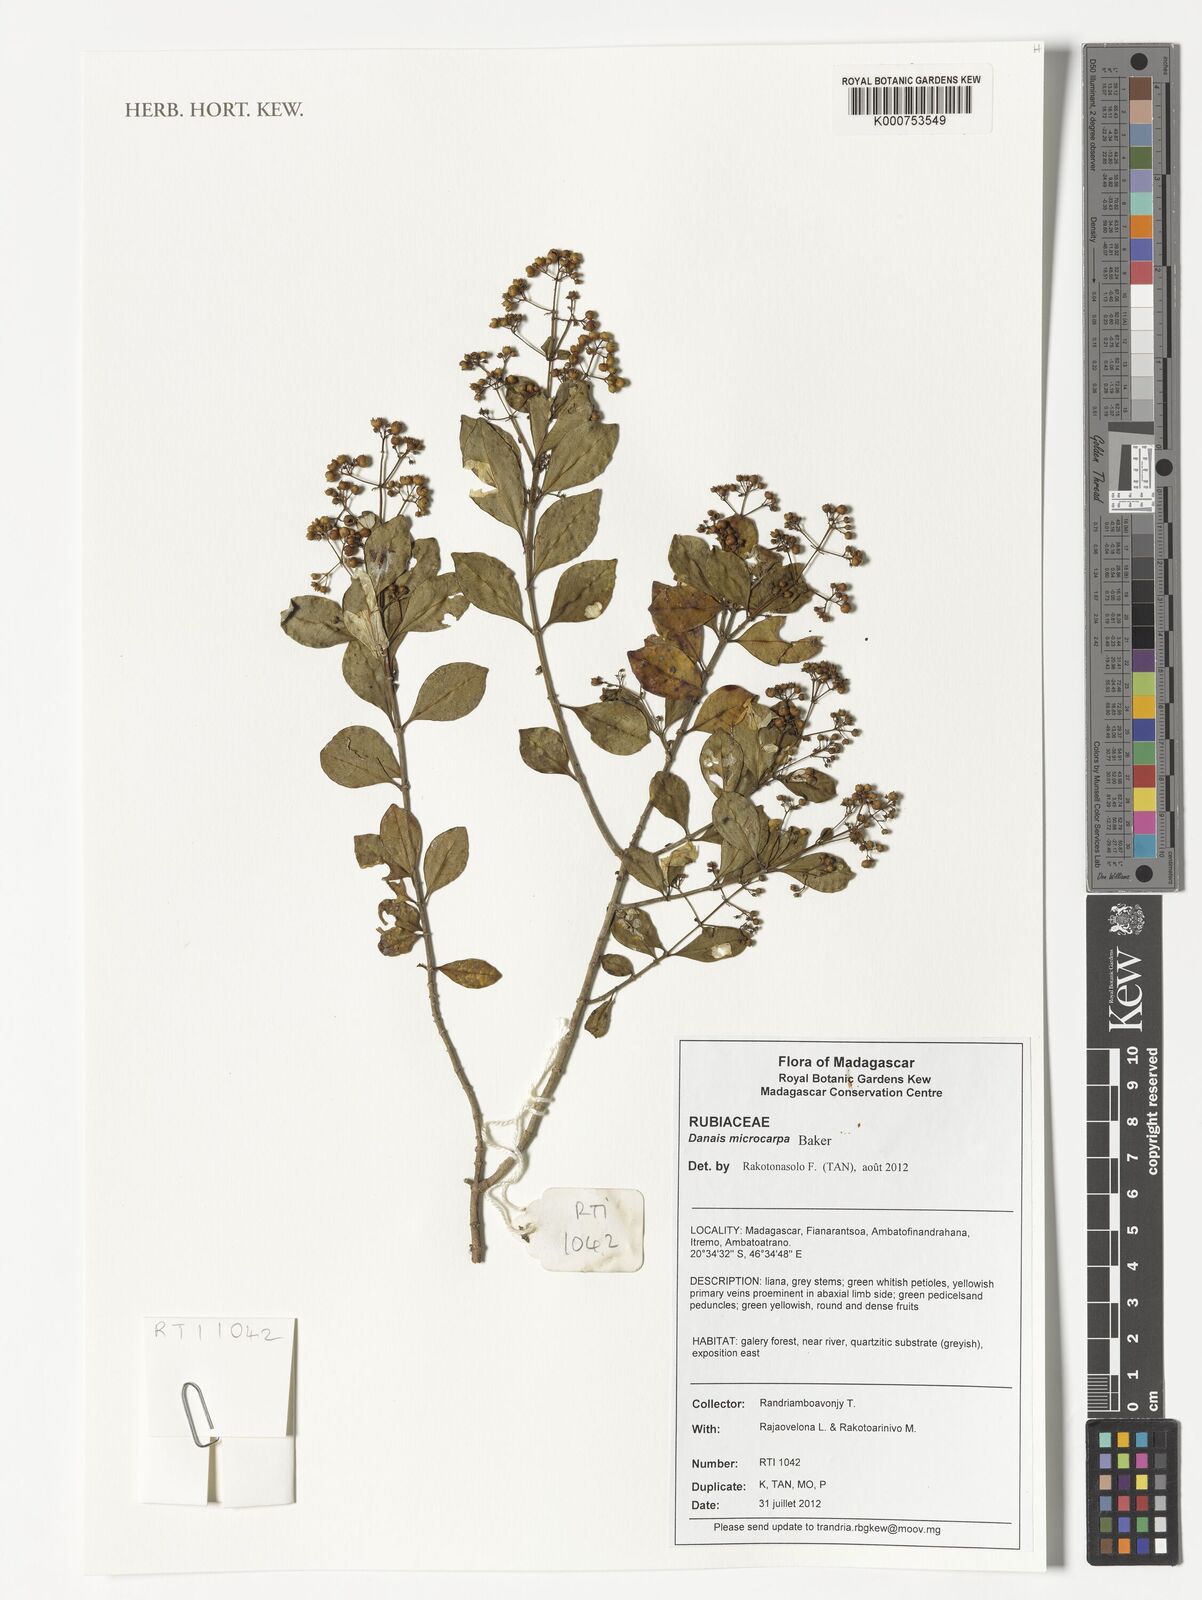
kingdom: Plantae
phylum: Tracheophyta
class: Magnoliopsida
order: Gentianales
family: Rubiaceae
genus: Danais
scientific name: Danais microcarpa
